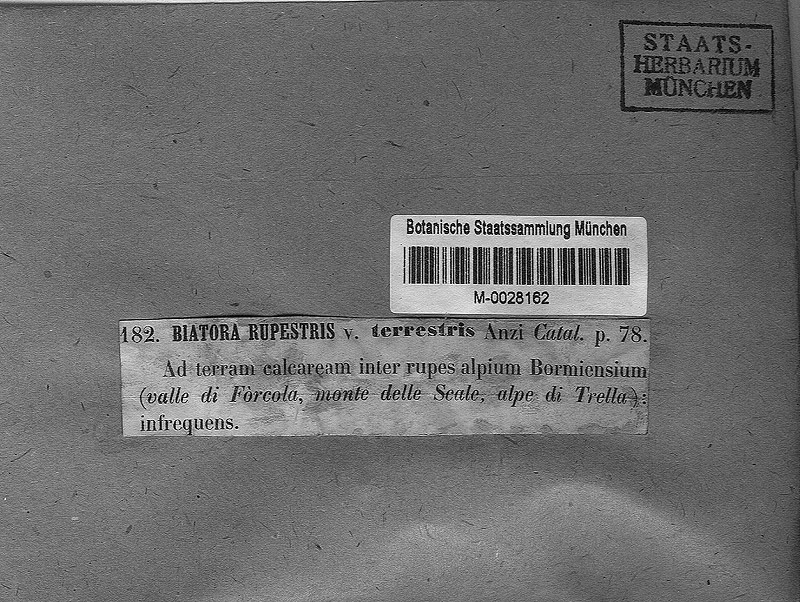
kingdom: Fungi
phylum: Ascomycota
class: Lecanoromycetes
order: Lecanorales
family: Psoraceae
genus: Protoblastenia
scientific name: Protoblastenia siebenhaariana
